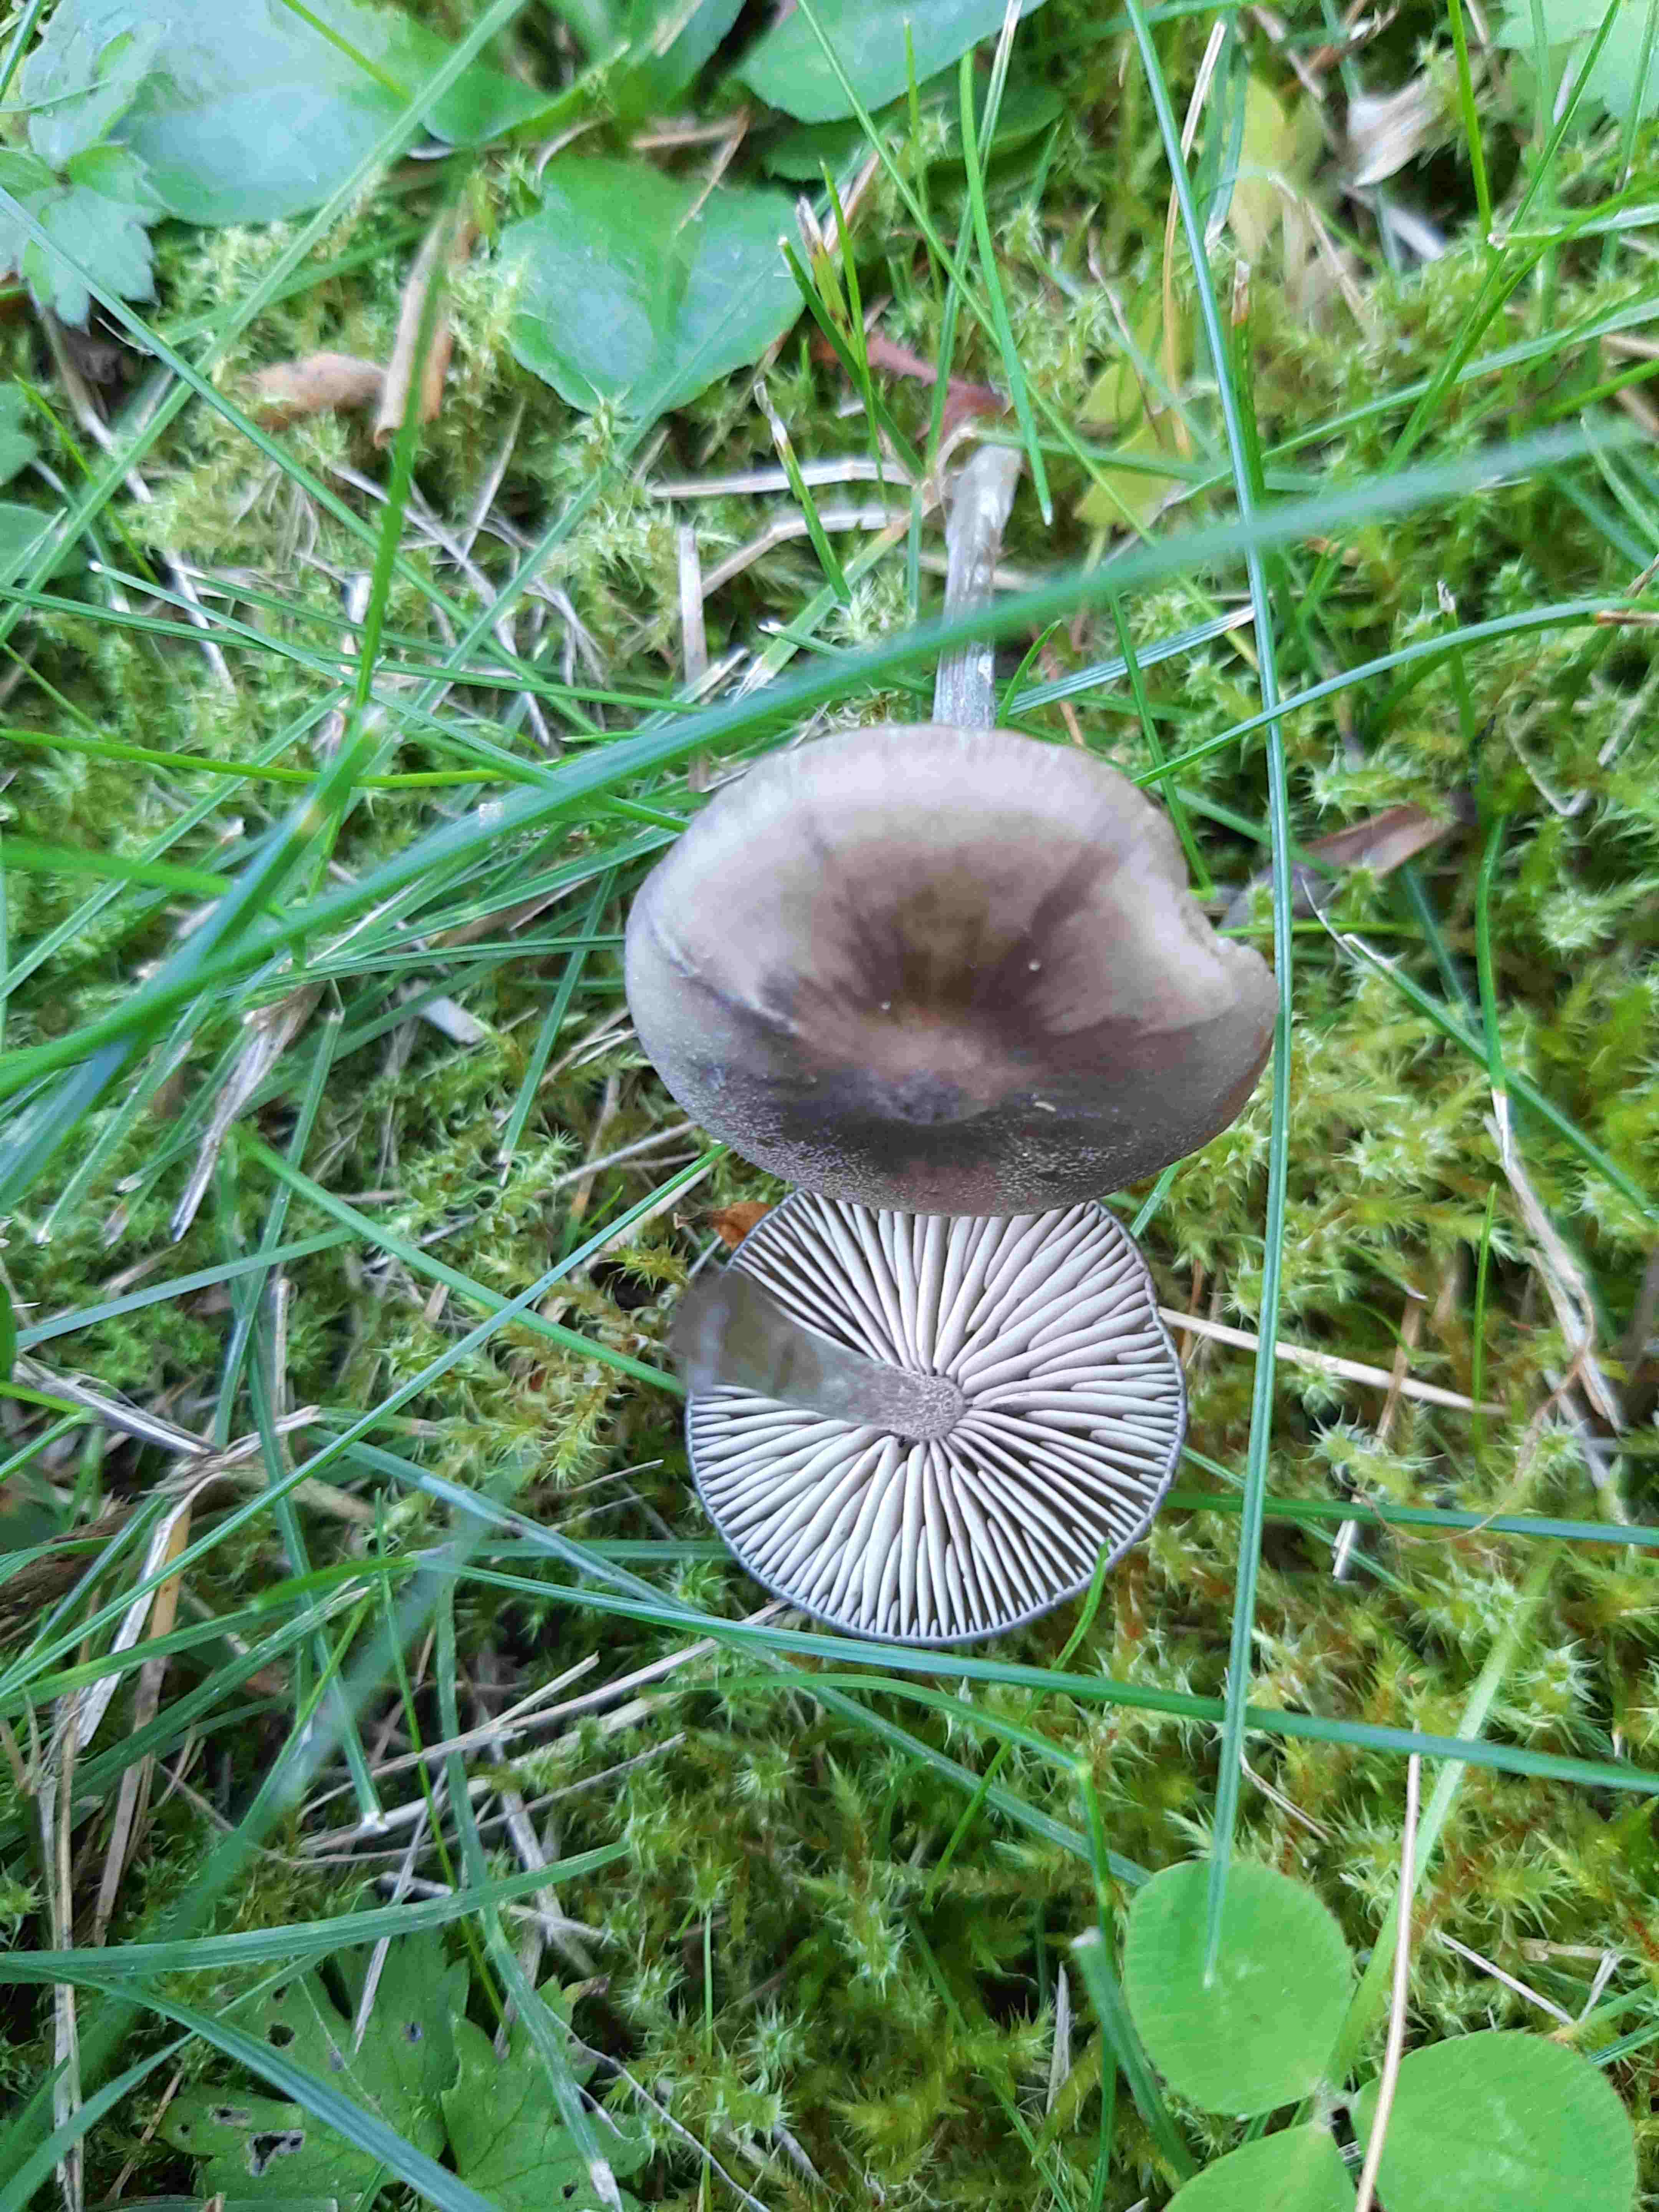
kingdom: Fungi
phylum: Basidiomycota
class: Agaricomycetes
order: Agaricales
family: Entolomataceae
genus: Entoloma
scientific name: Entoloma
